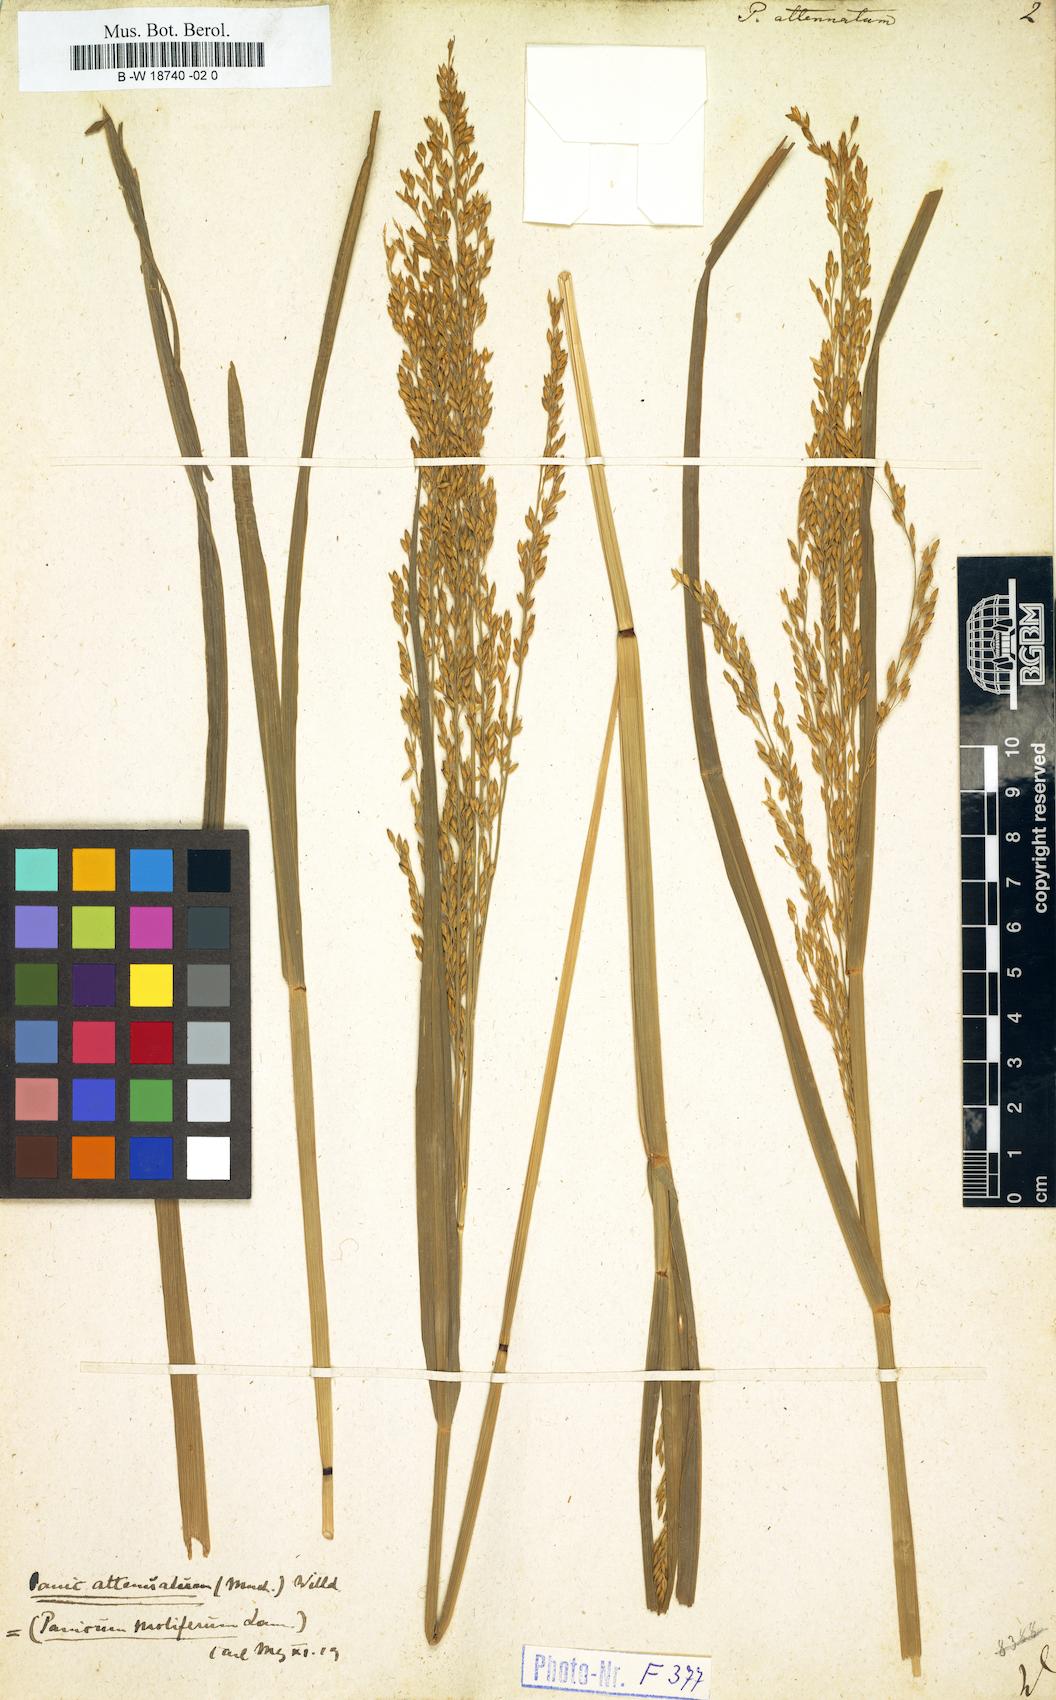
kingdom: Plantae
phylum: Tracheophyta
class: Liliopsida
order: Poales
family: Poaceae
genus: Panicum
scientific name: Panicum sumatrense
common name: Little millet
